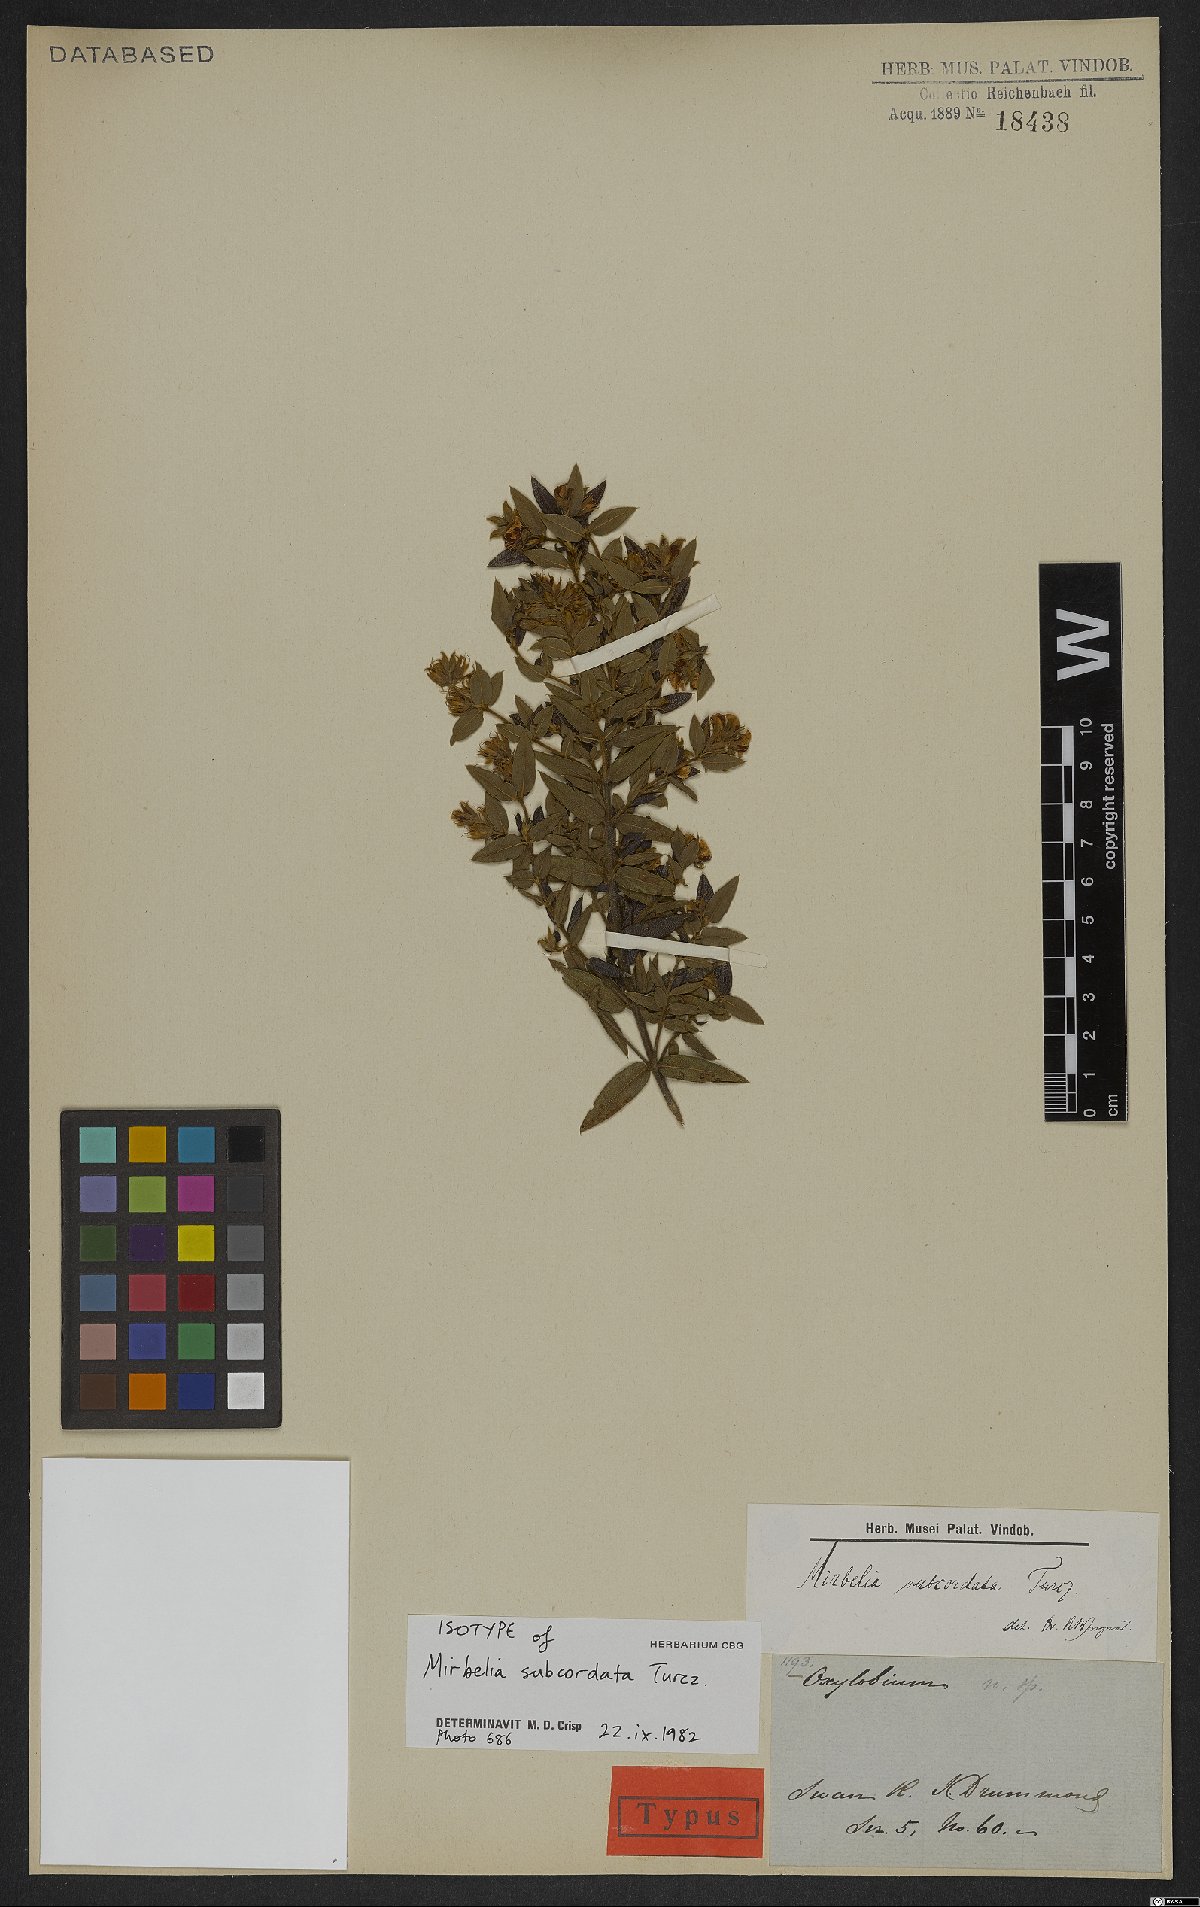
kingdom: Plantae
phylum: Tracheophyta
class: Magnoliopsida
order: Fabales
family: Fabaceae
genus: Mirbelia
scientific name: Mirbelia subcordata
